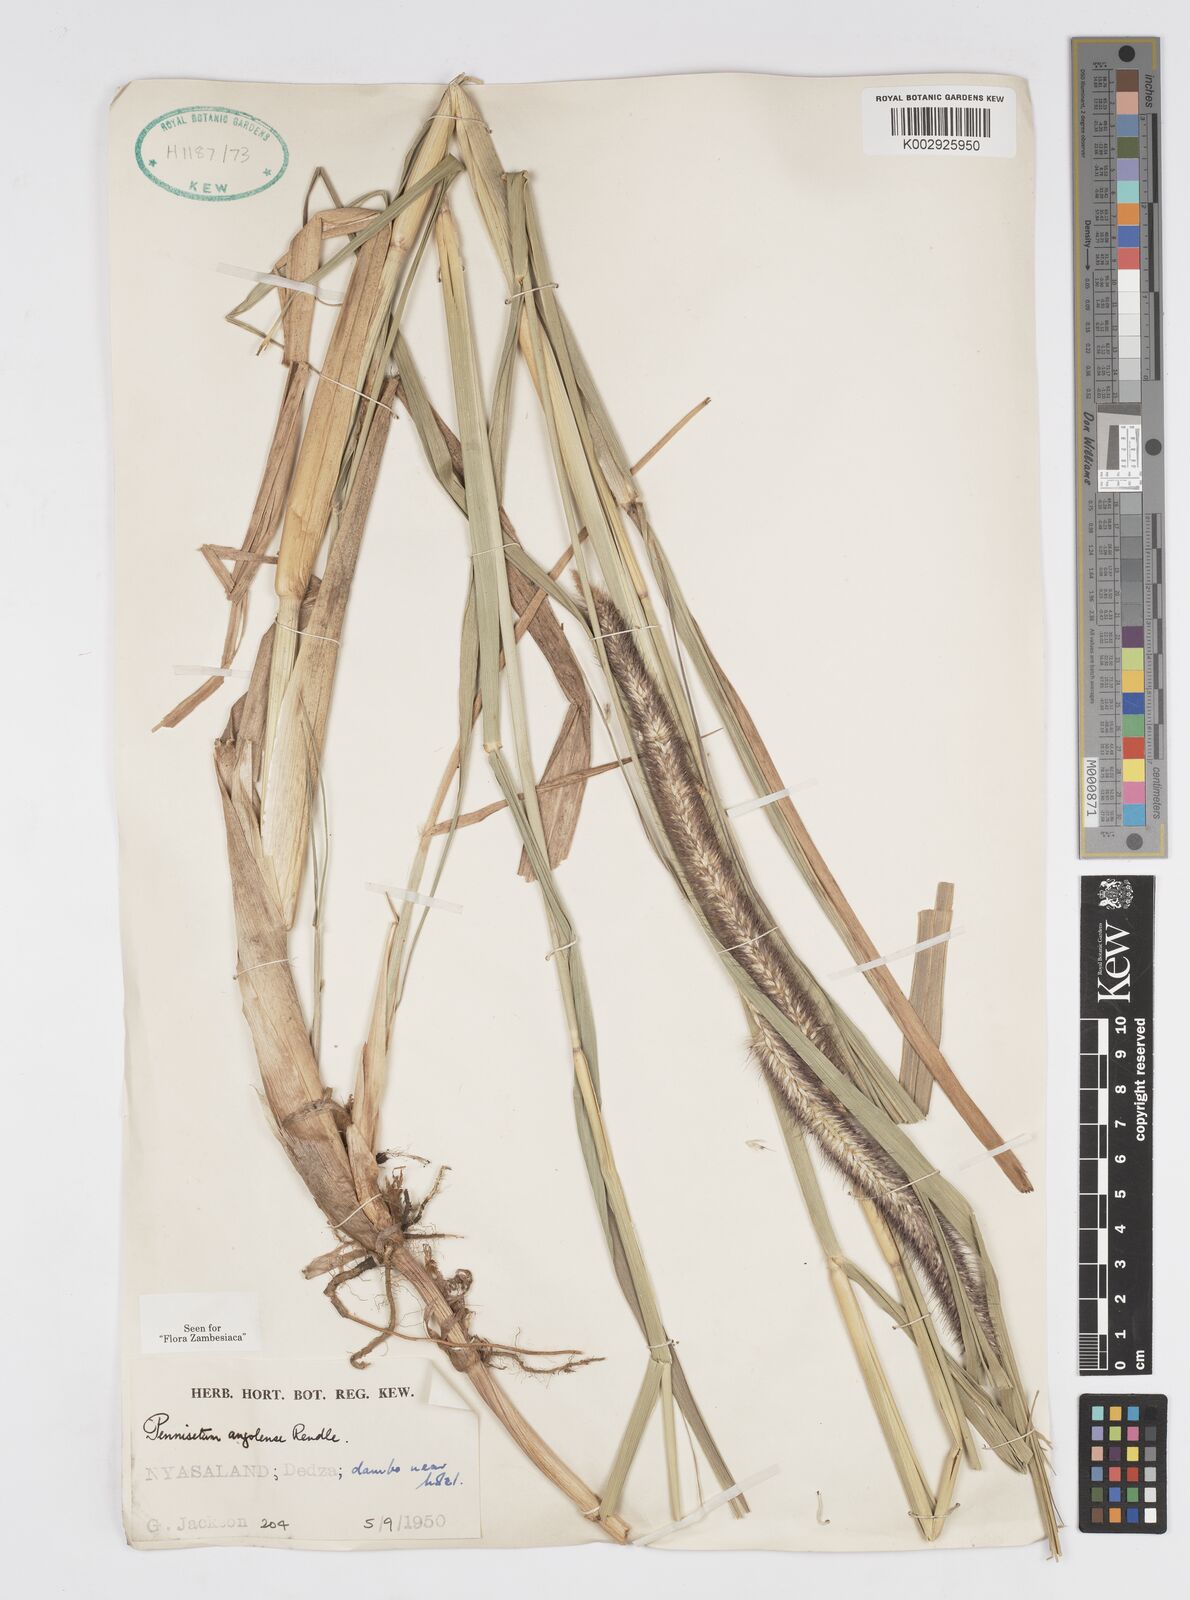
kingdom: Plantae
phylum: Tracheophyta
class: Liliopsida
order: Poales
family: Poaceae
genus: Cenchrus
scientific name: Cenchrus caudatus
